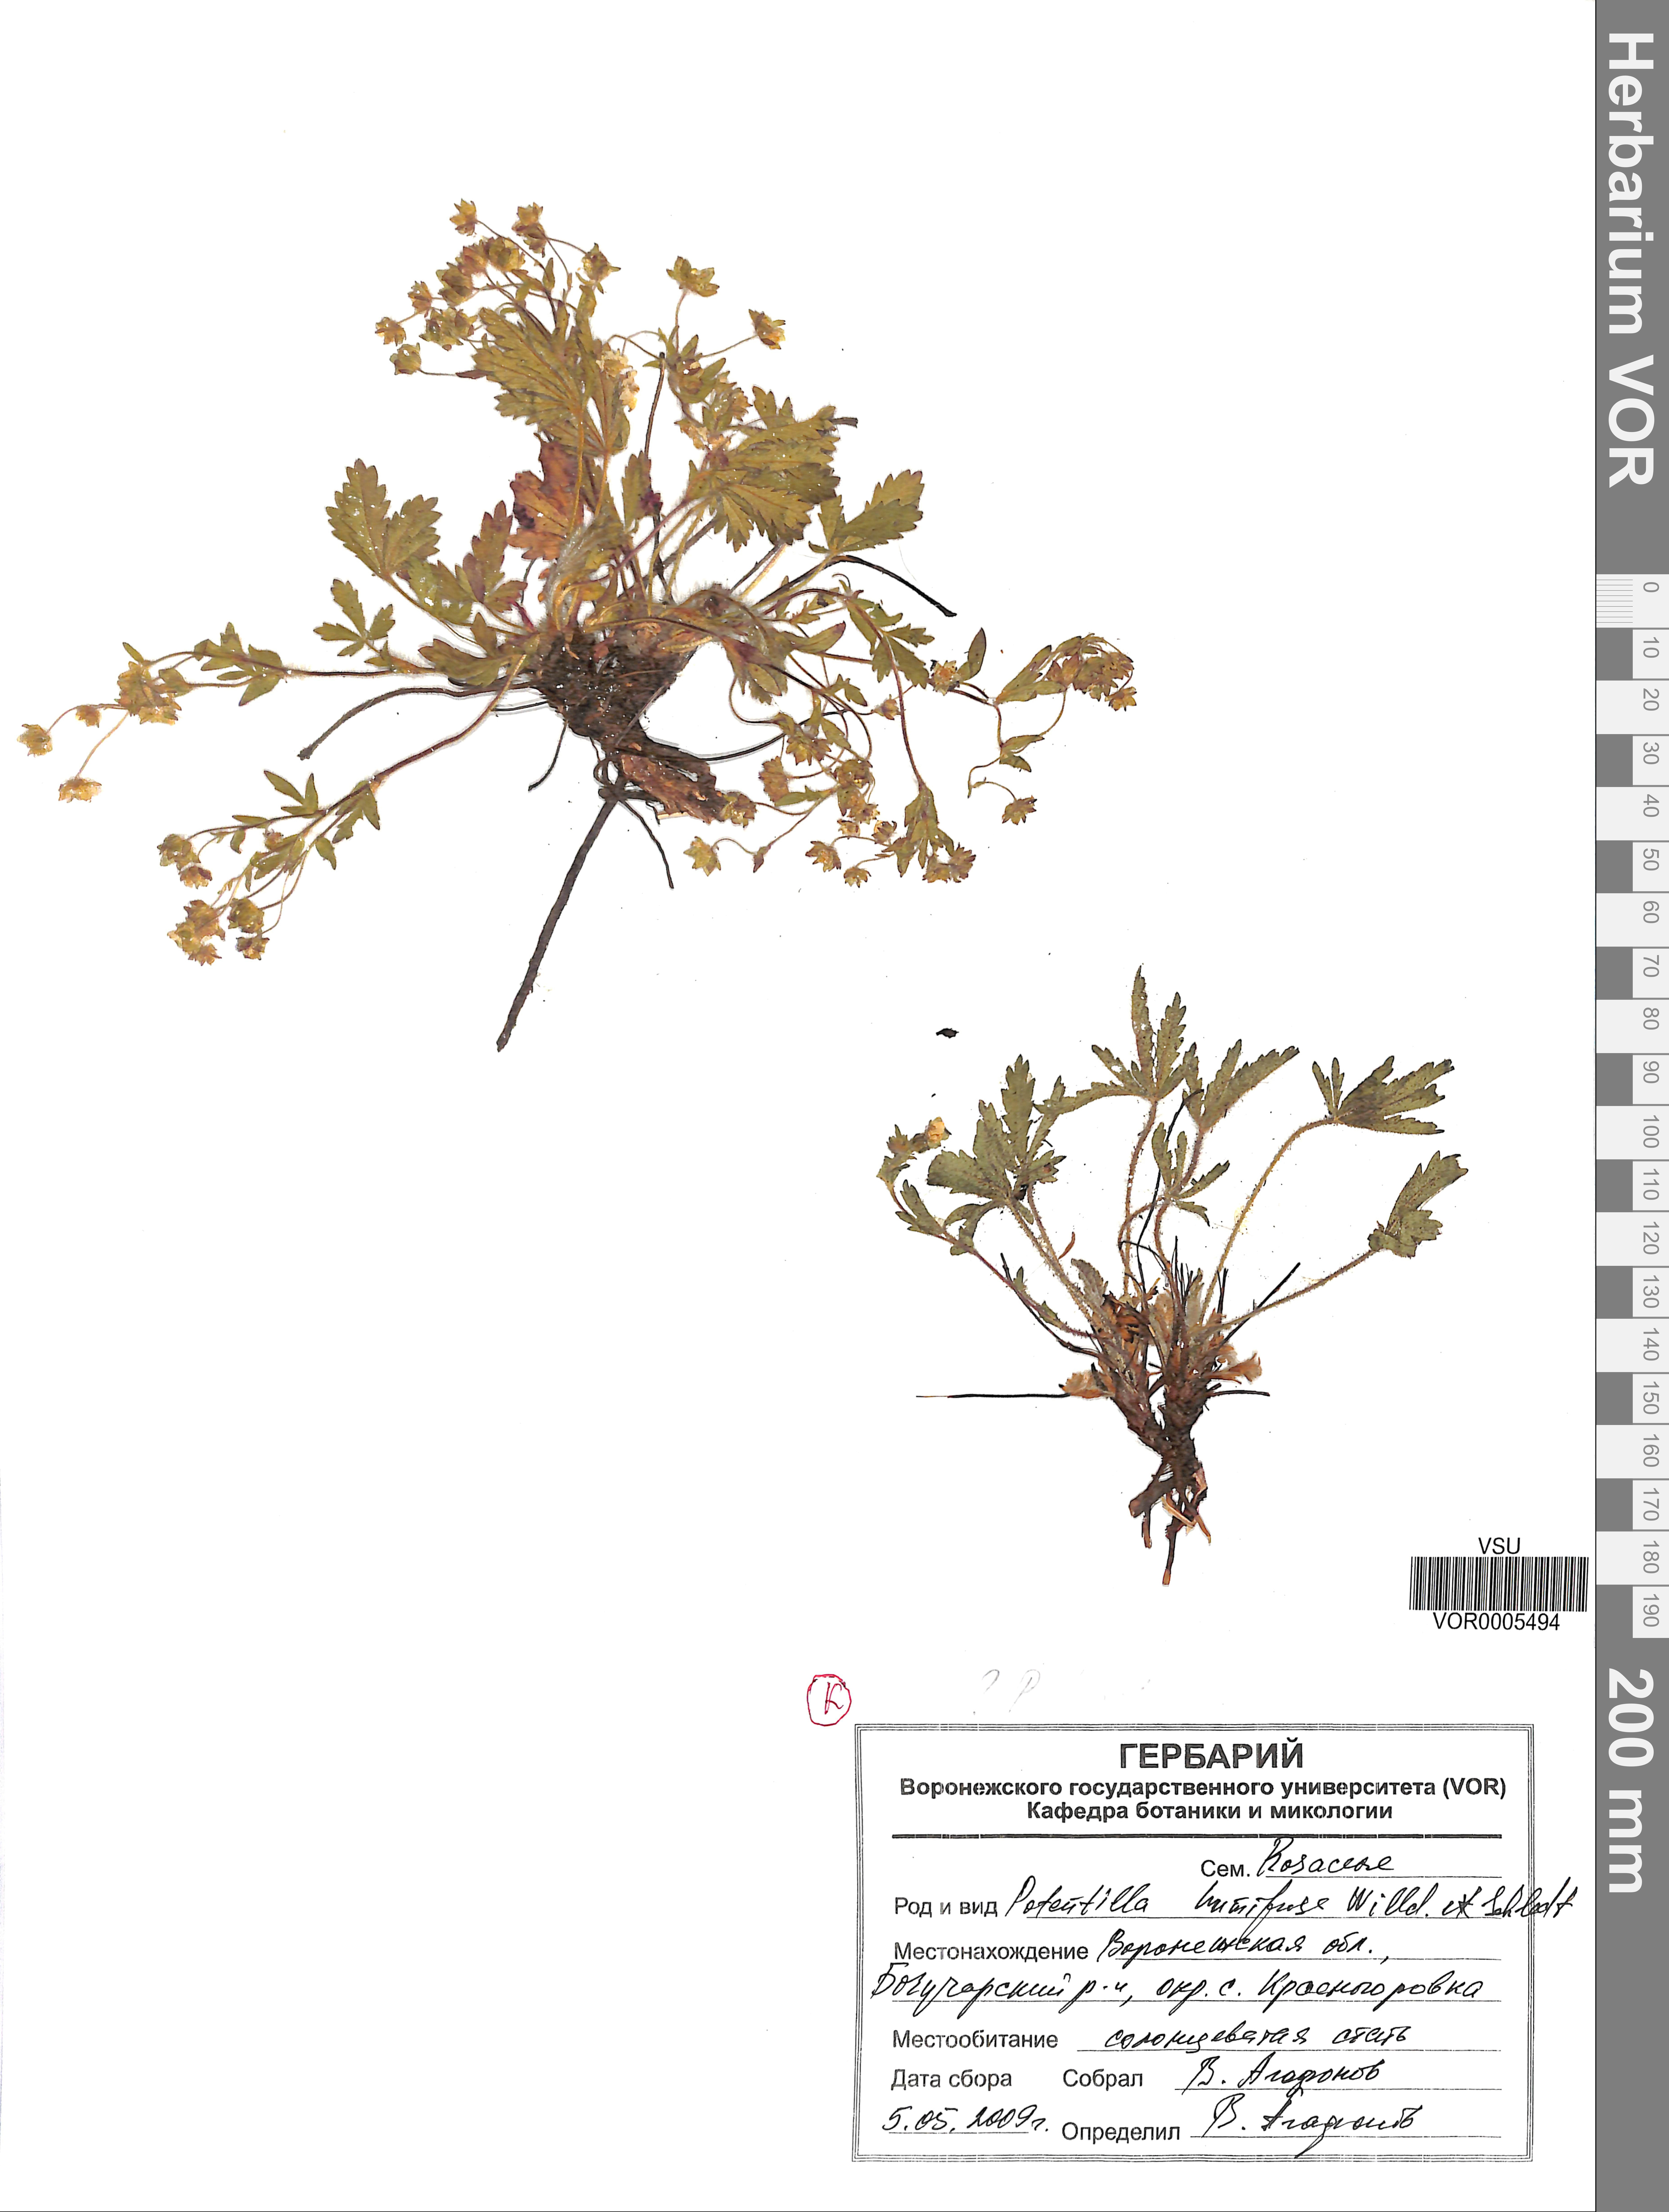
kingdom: Plantae
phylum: Tracheophyta
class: Magnoliopsida
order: Rosales
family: Rosaceae
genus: Potentilla
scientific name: Potentilla humifusa
